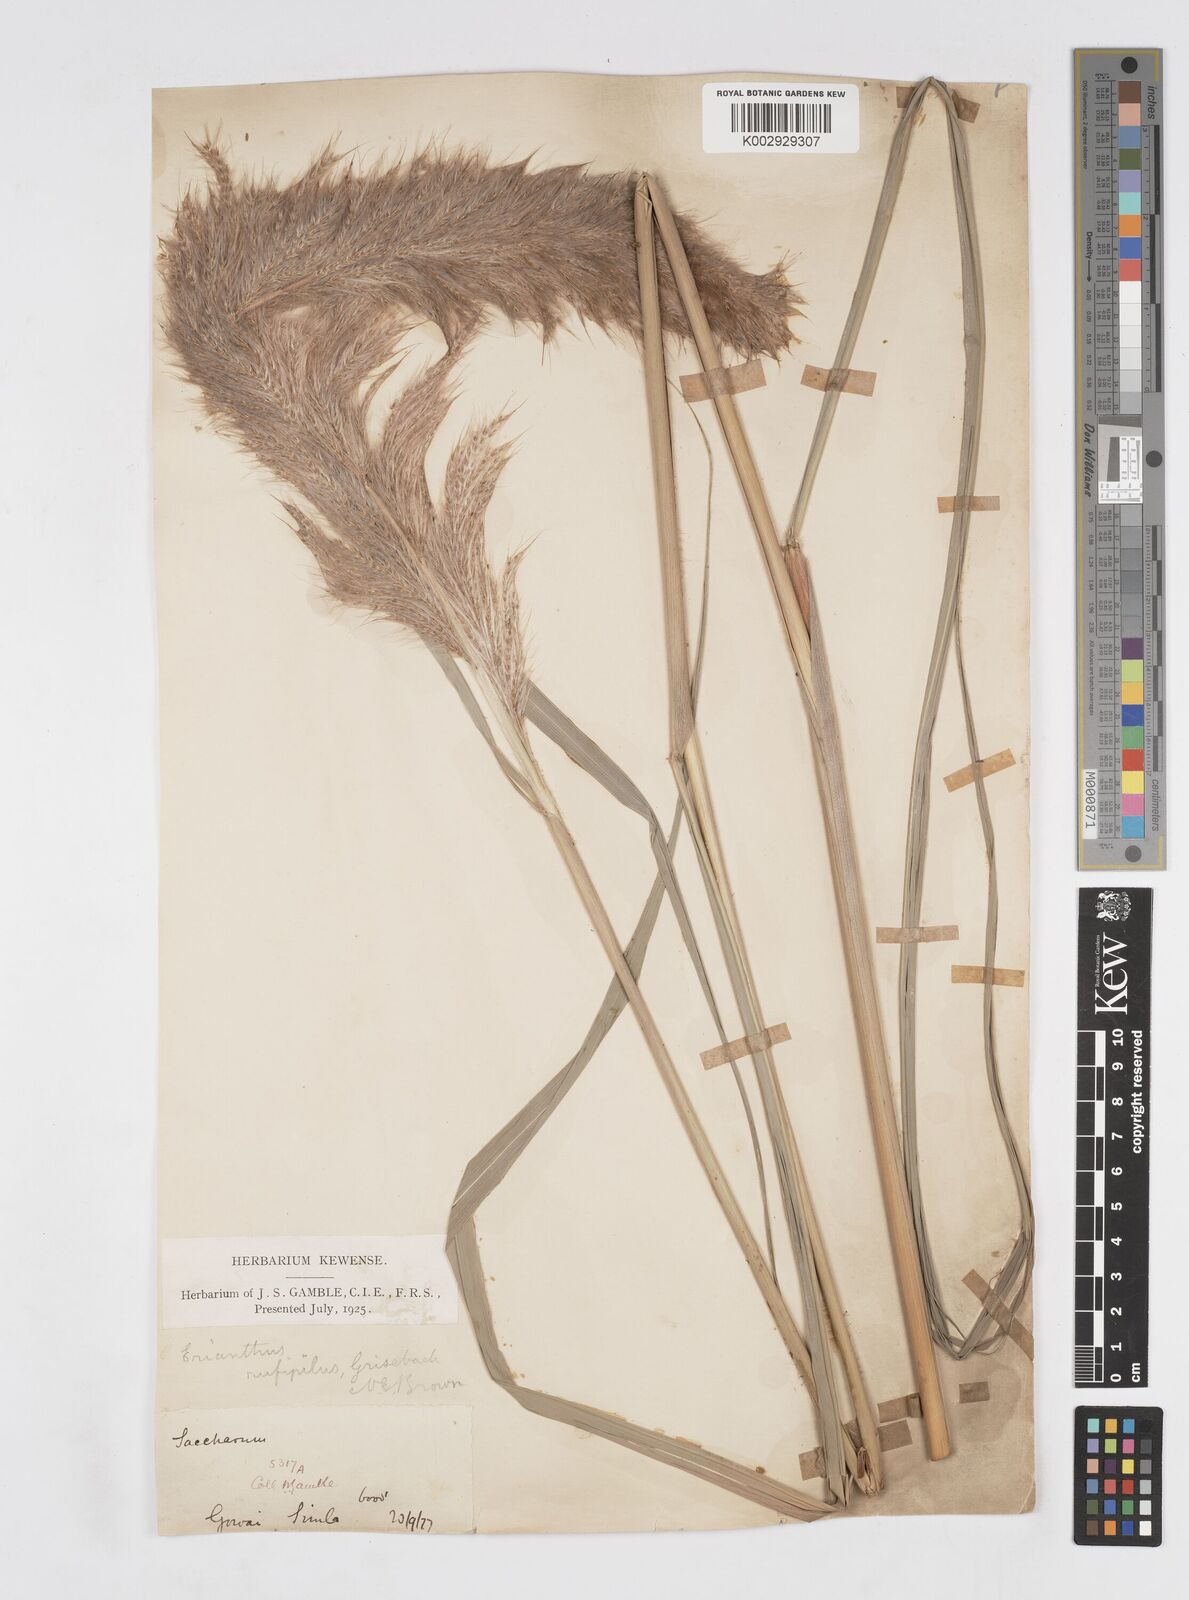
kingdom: Plantae
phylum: Tracheophyta
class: Liliopsida
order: Poales
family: Poaceae
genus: Tripidium
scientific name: Tripidium rufipilum
